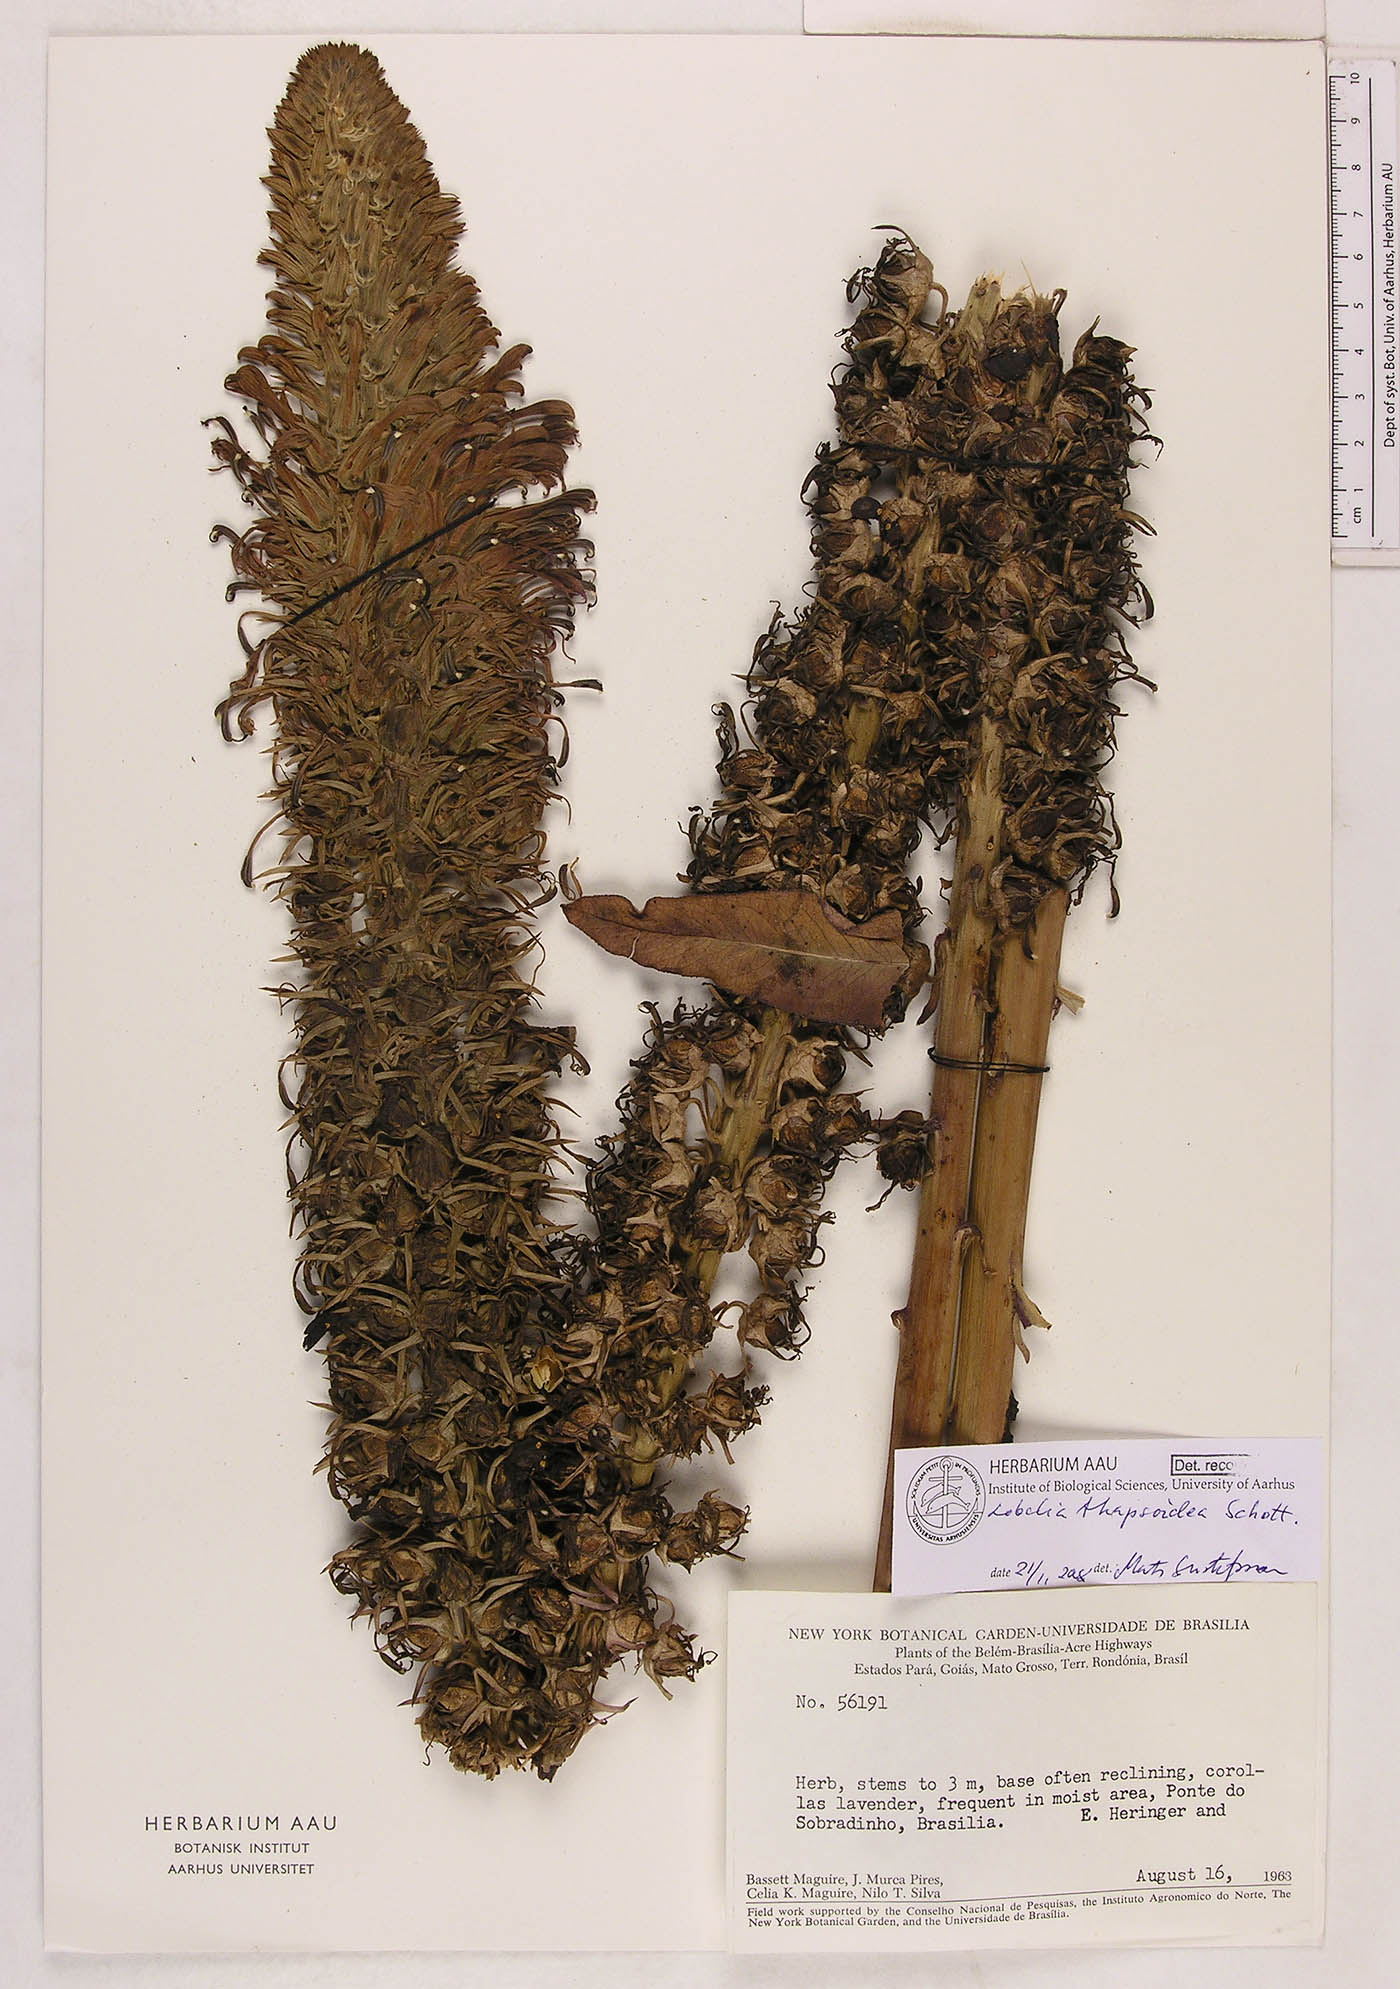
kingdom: Plantae
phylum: Tracheophyta
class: Magnoliopsida
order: Asterales
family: Campanulaceae
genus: Lobelia
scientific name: Lobelia thapsoidea
